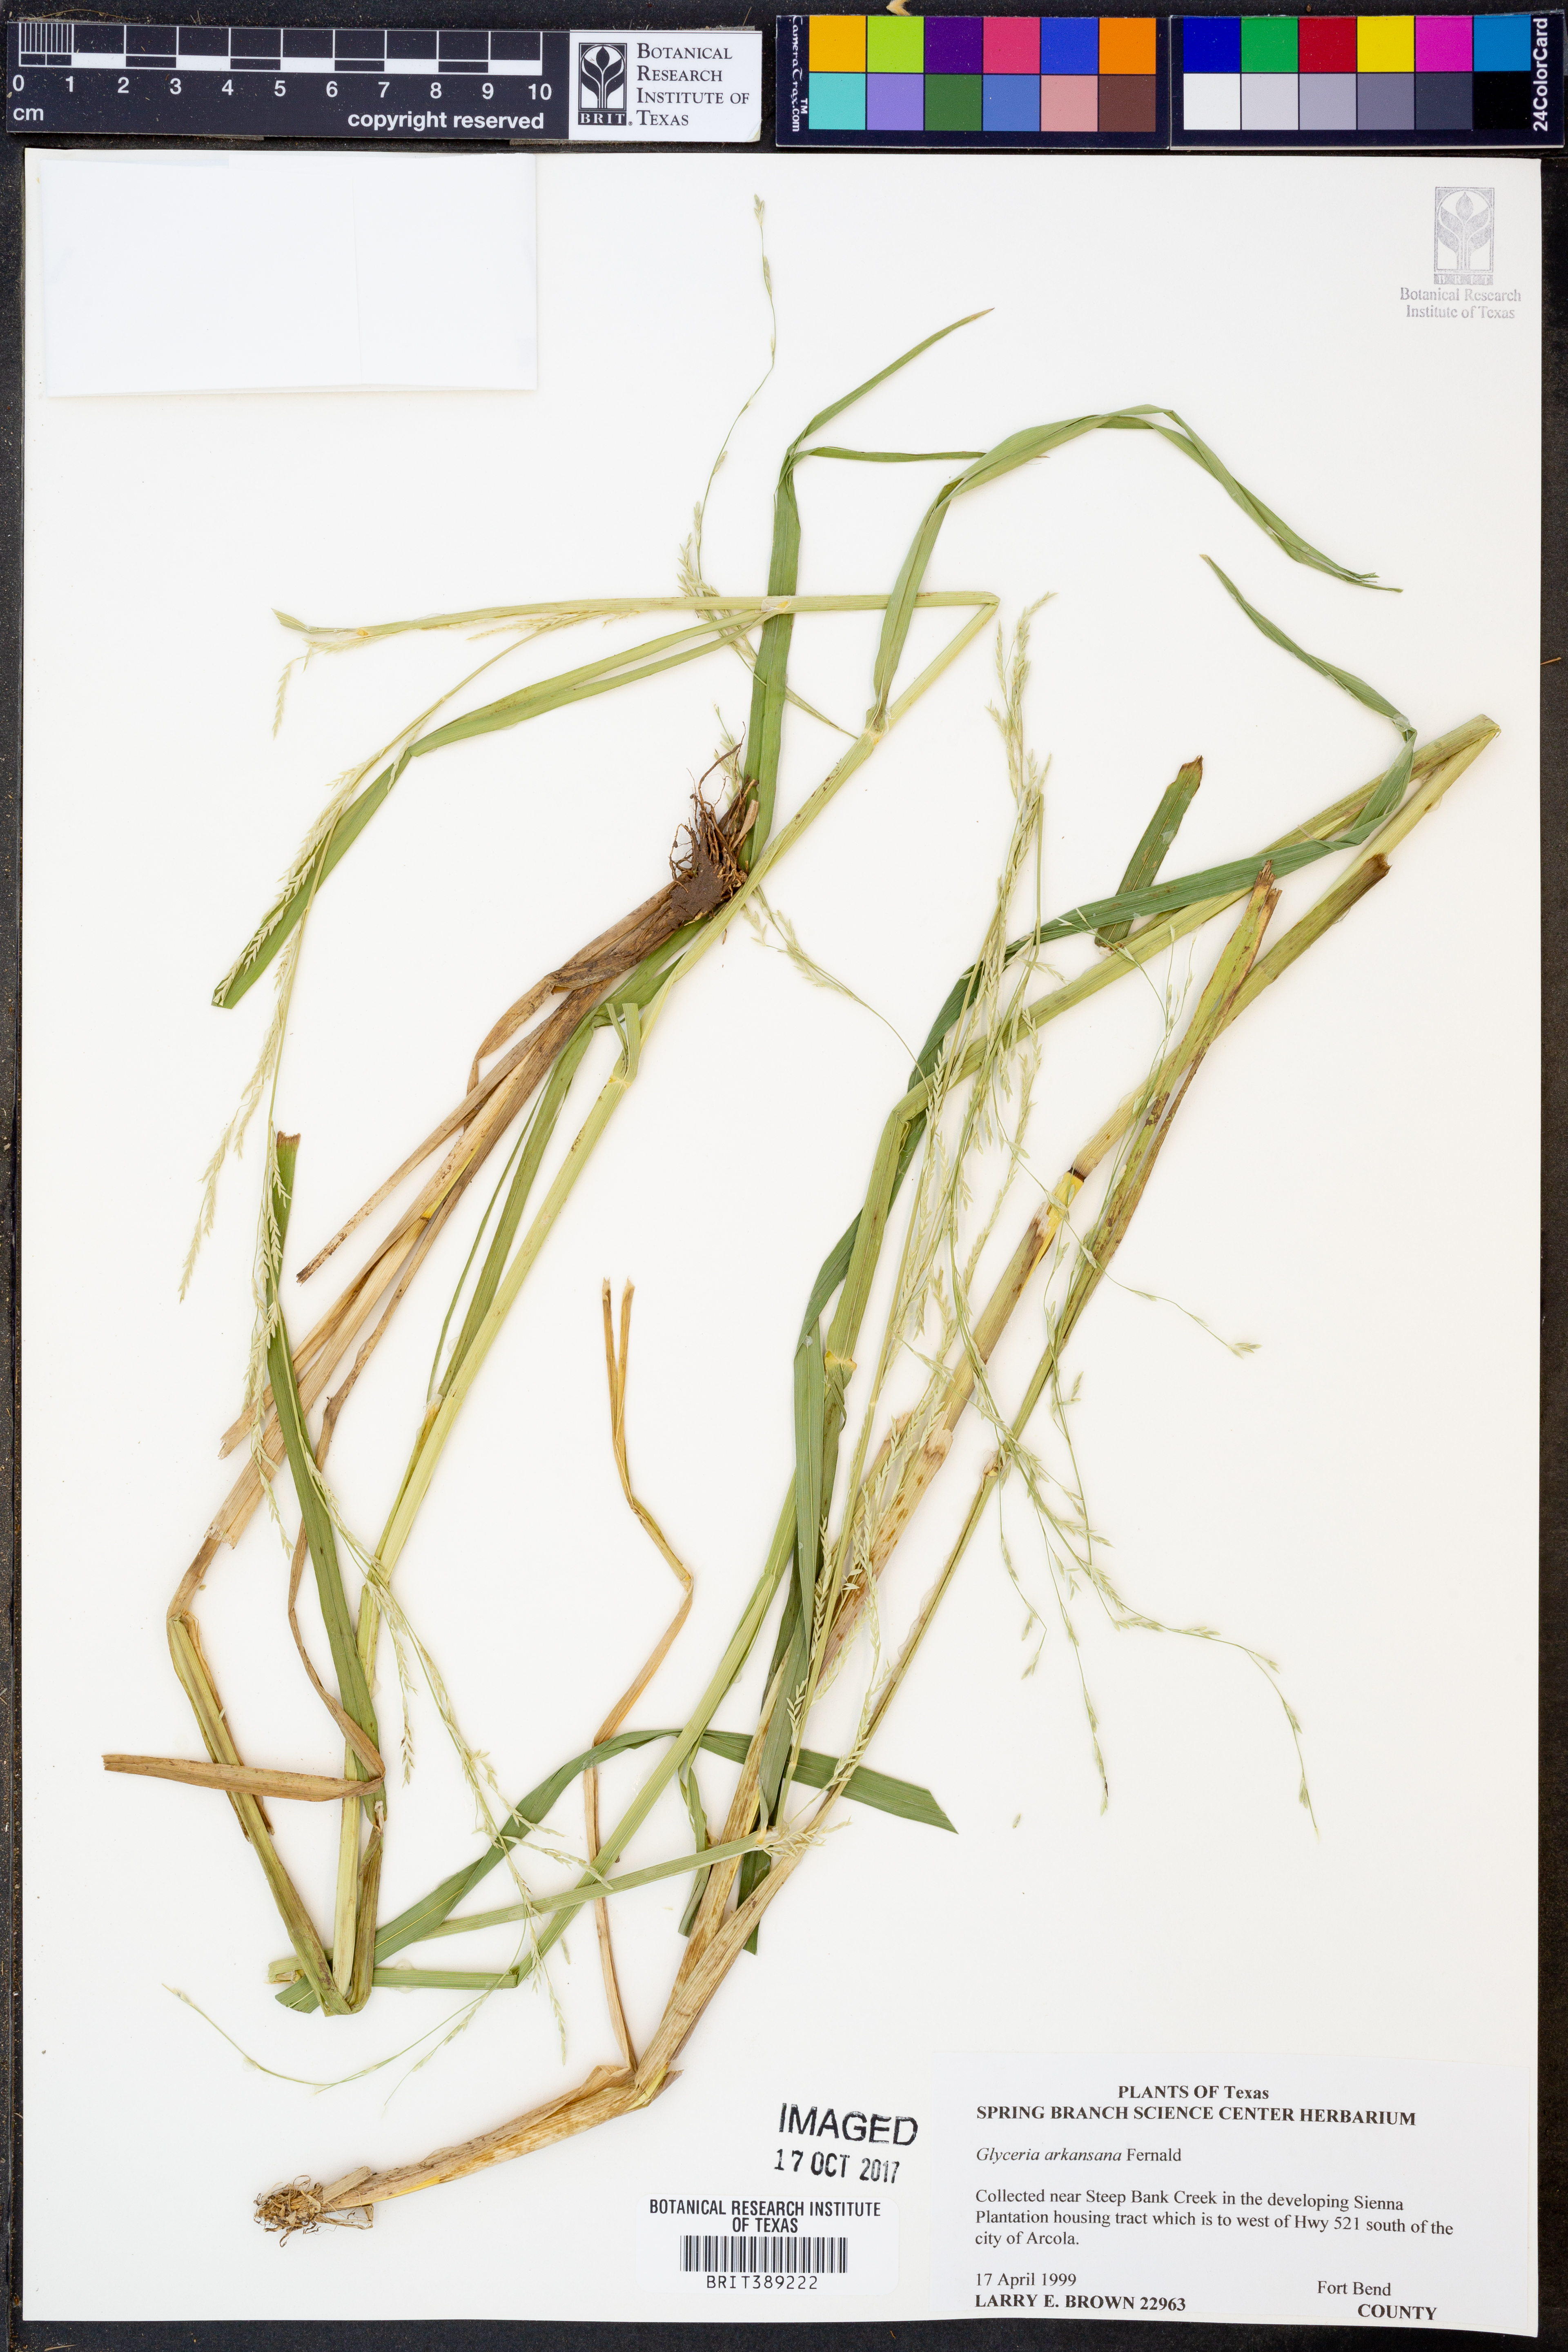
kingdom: Plantae
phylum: Tracheophyta
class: Liliopsida
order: Poales
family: Poaceae
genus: Glyceria
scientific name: Glyceria arkansana
